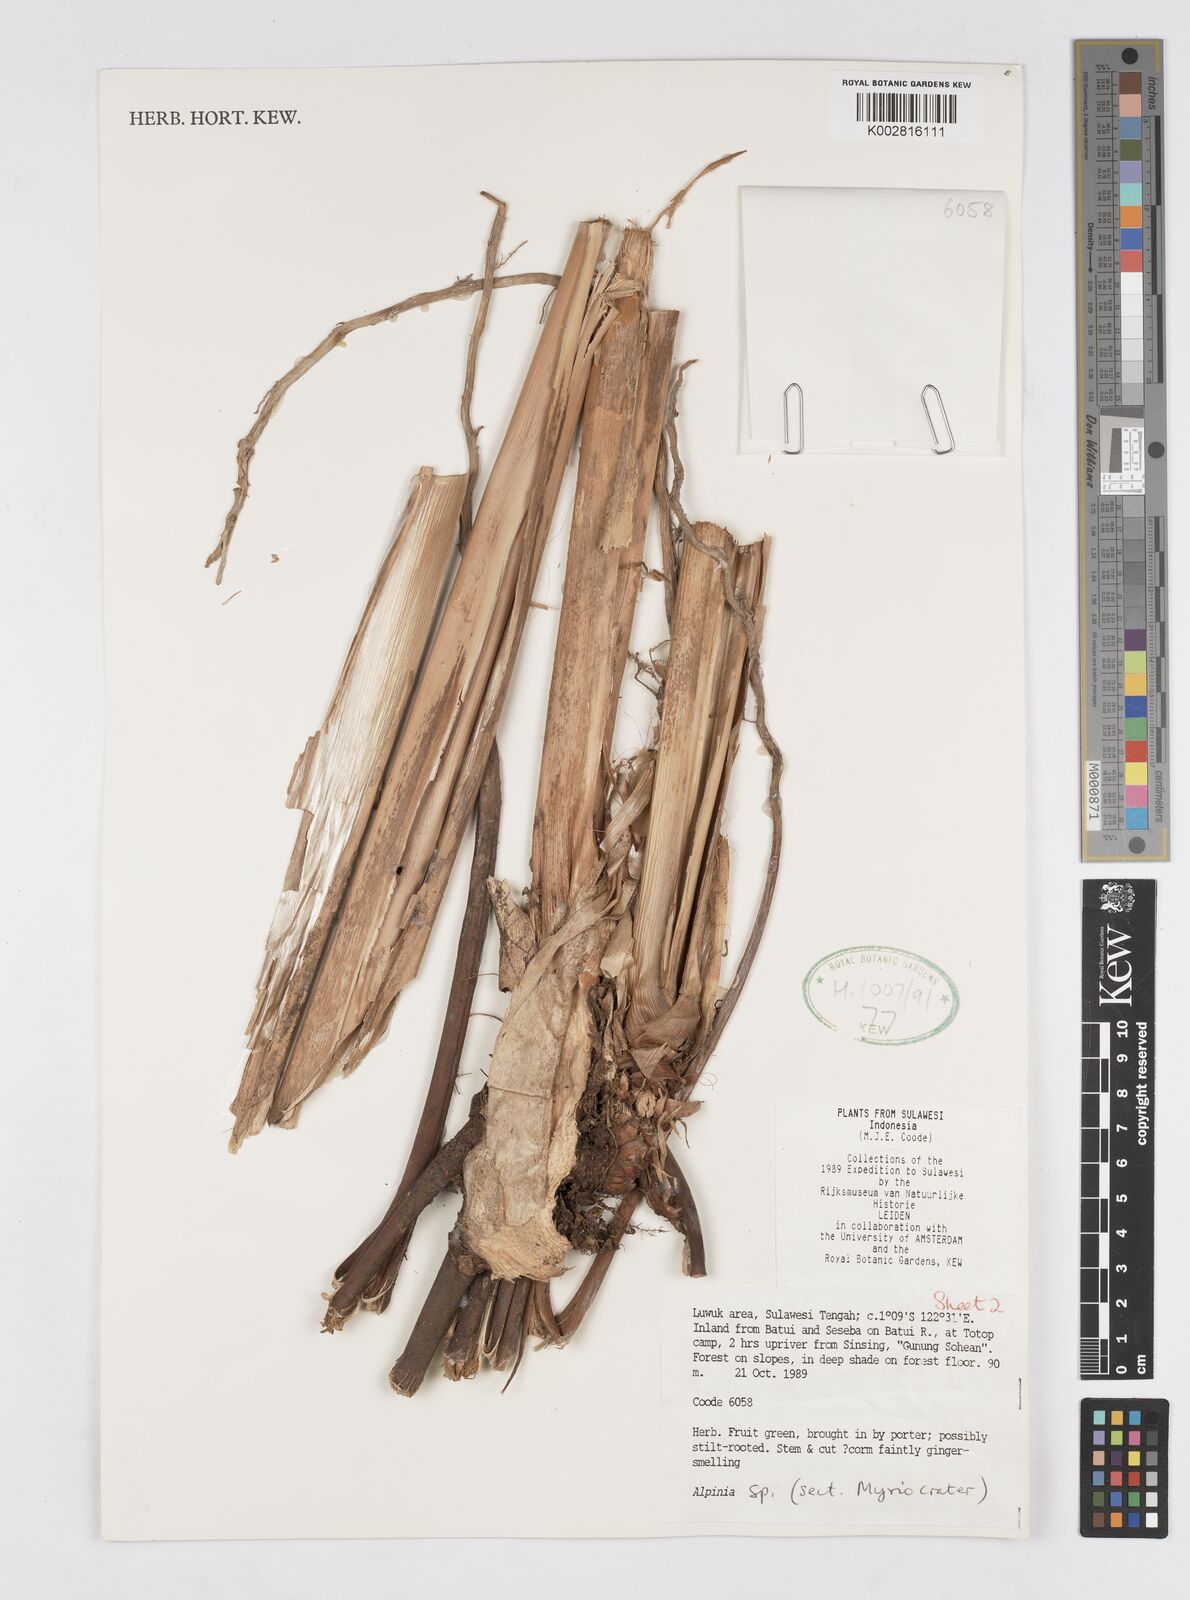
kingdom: Plantae
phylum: Tracheophyta
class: Liliopsida
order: Zingiberales
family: Zingiberaceae
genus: Alpinia
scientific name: Alpinia
